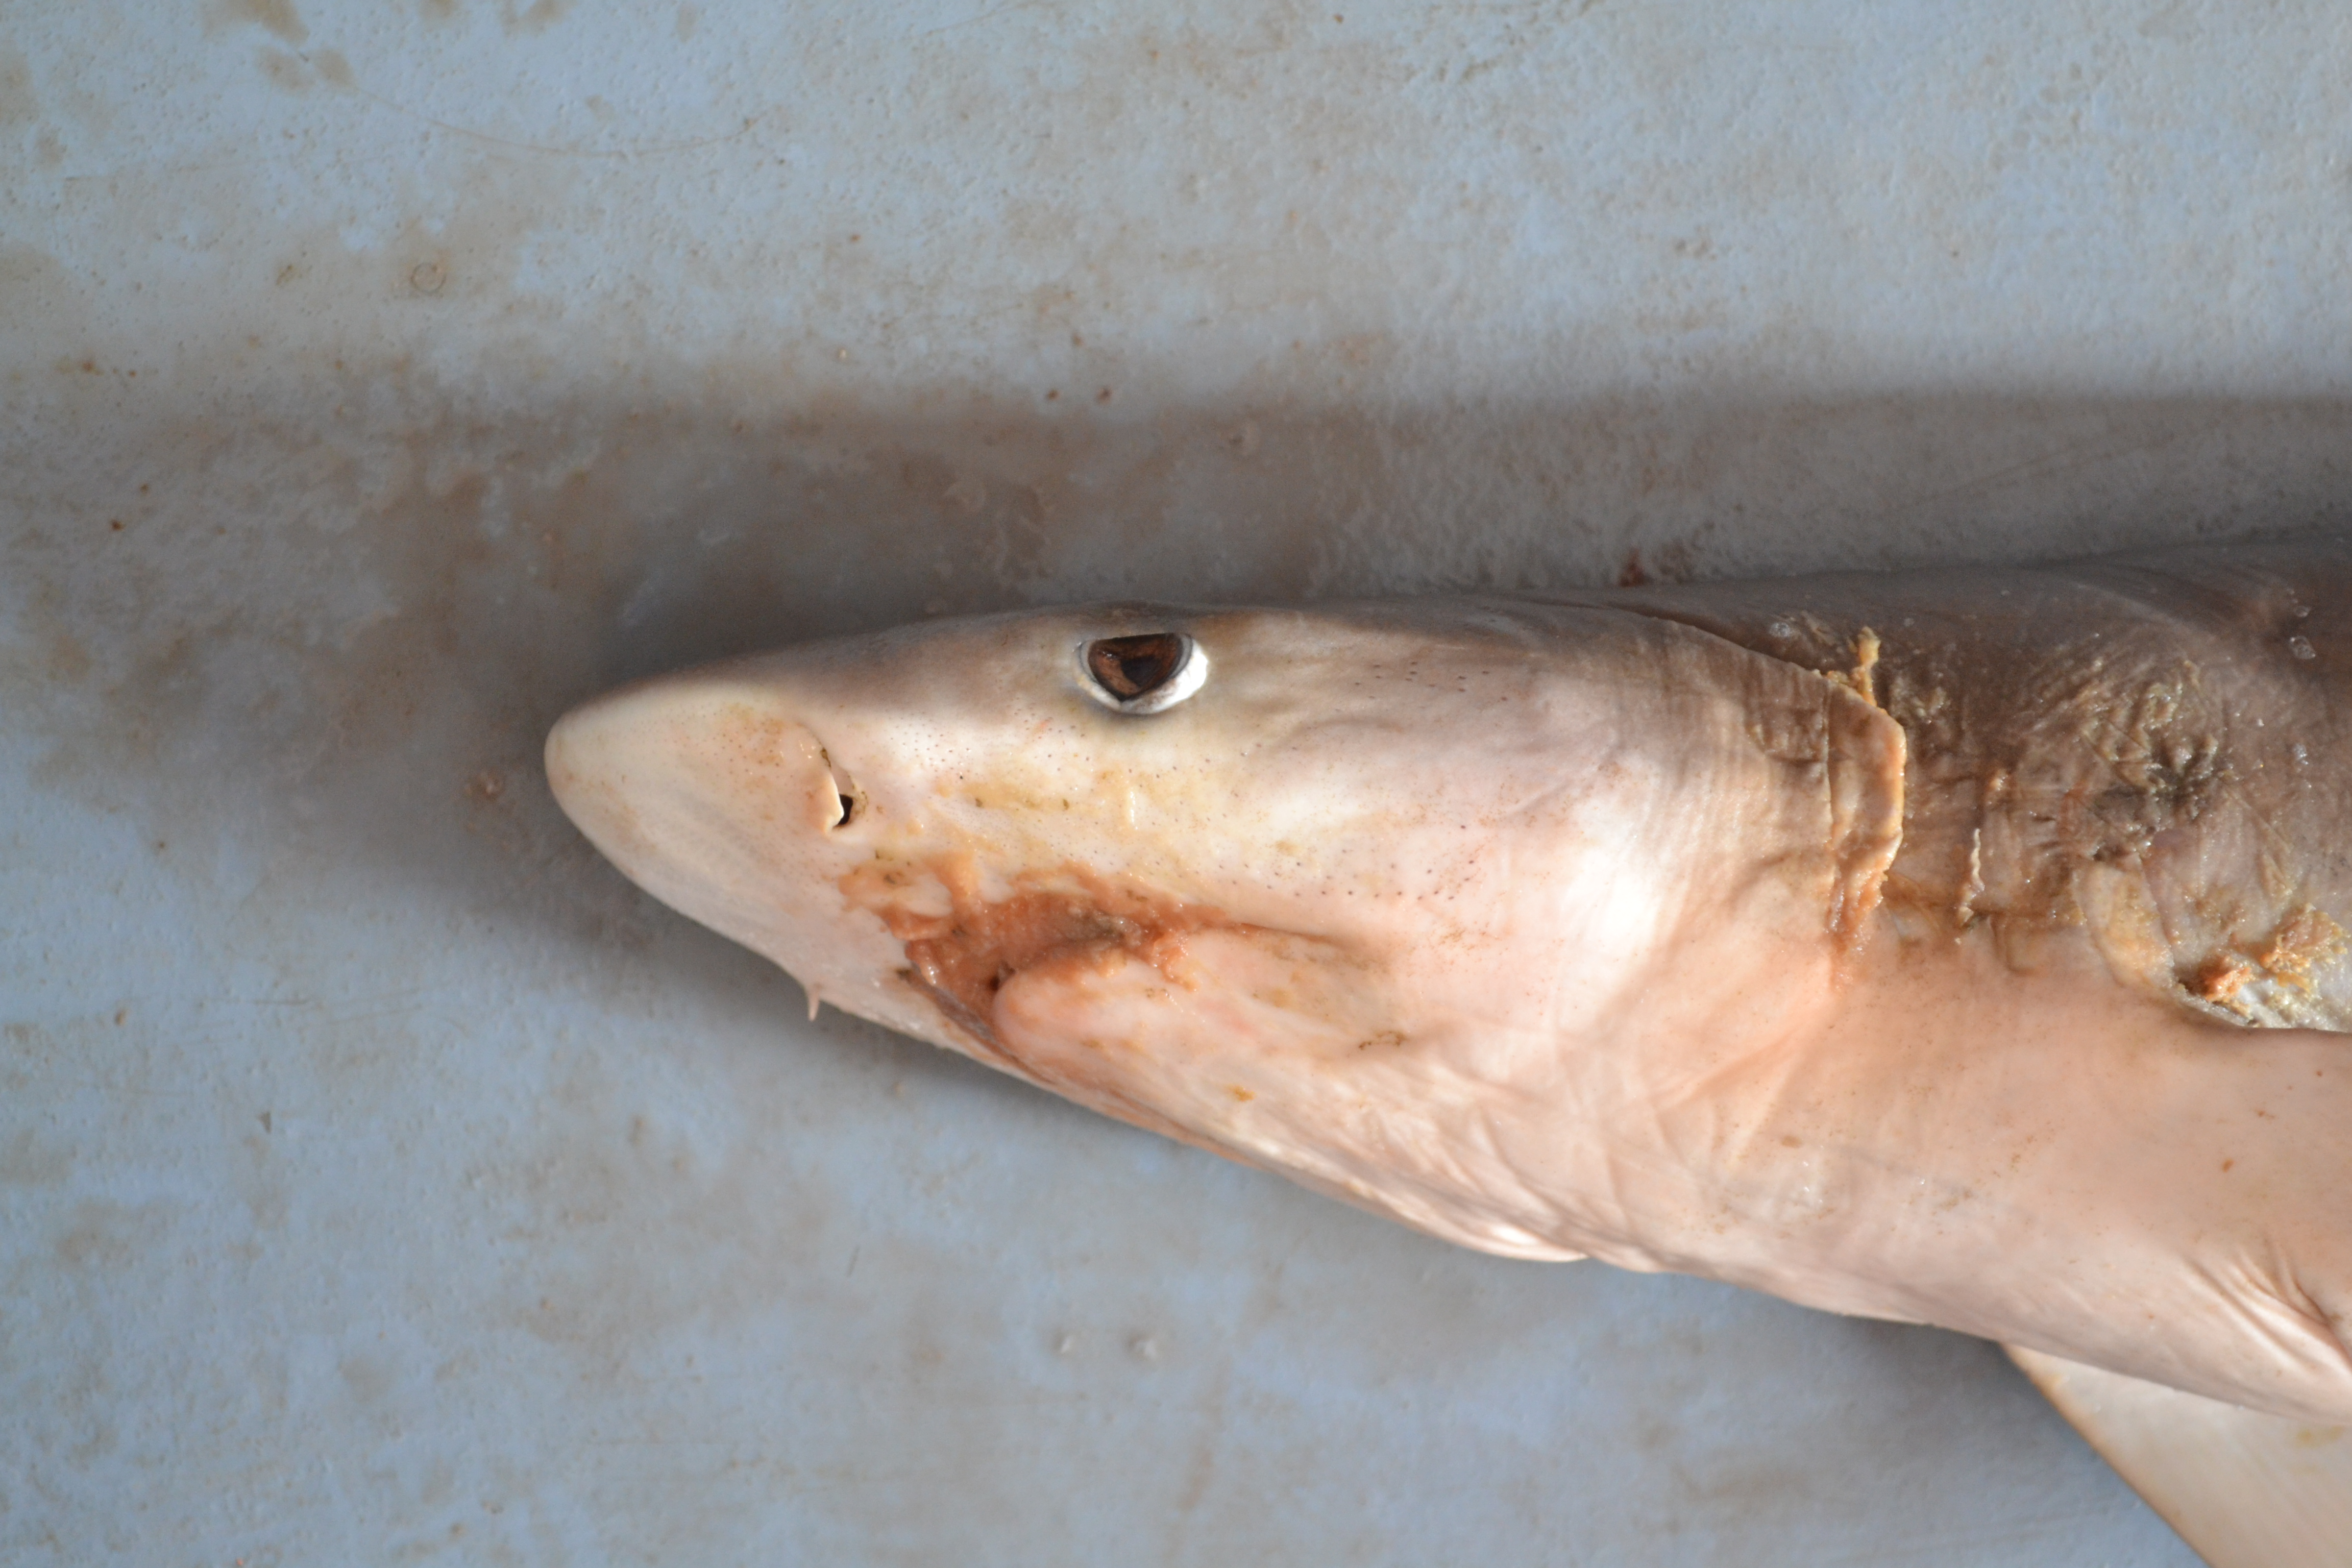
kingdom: Animalia
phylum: Chordata
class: Elasmobranchii
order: Carcharhiniformes
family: Carcharhinidae
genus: Carcharhinus
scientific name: Carcharhinus sealei
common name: Blackspot shark
